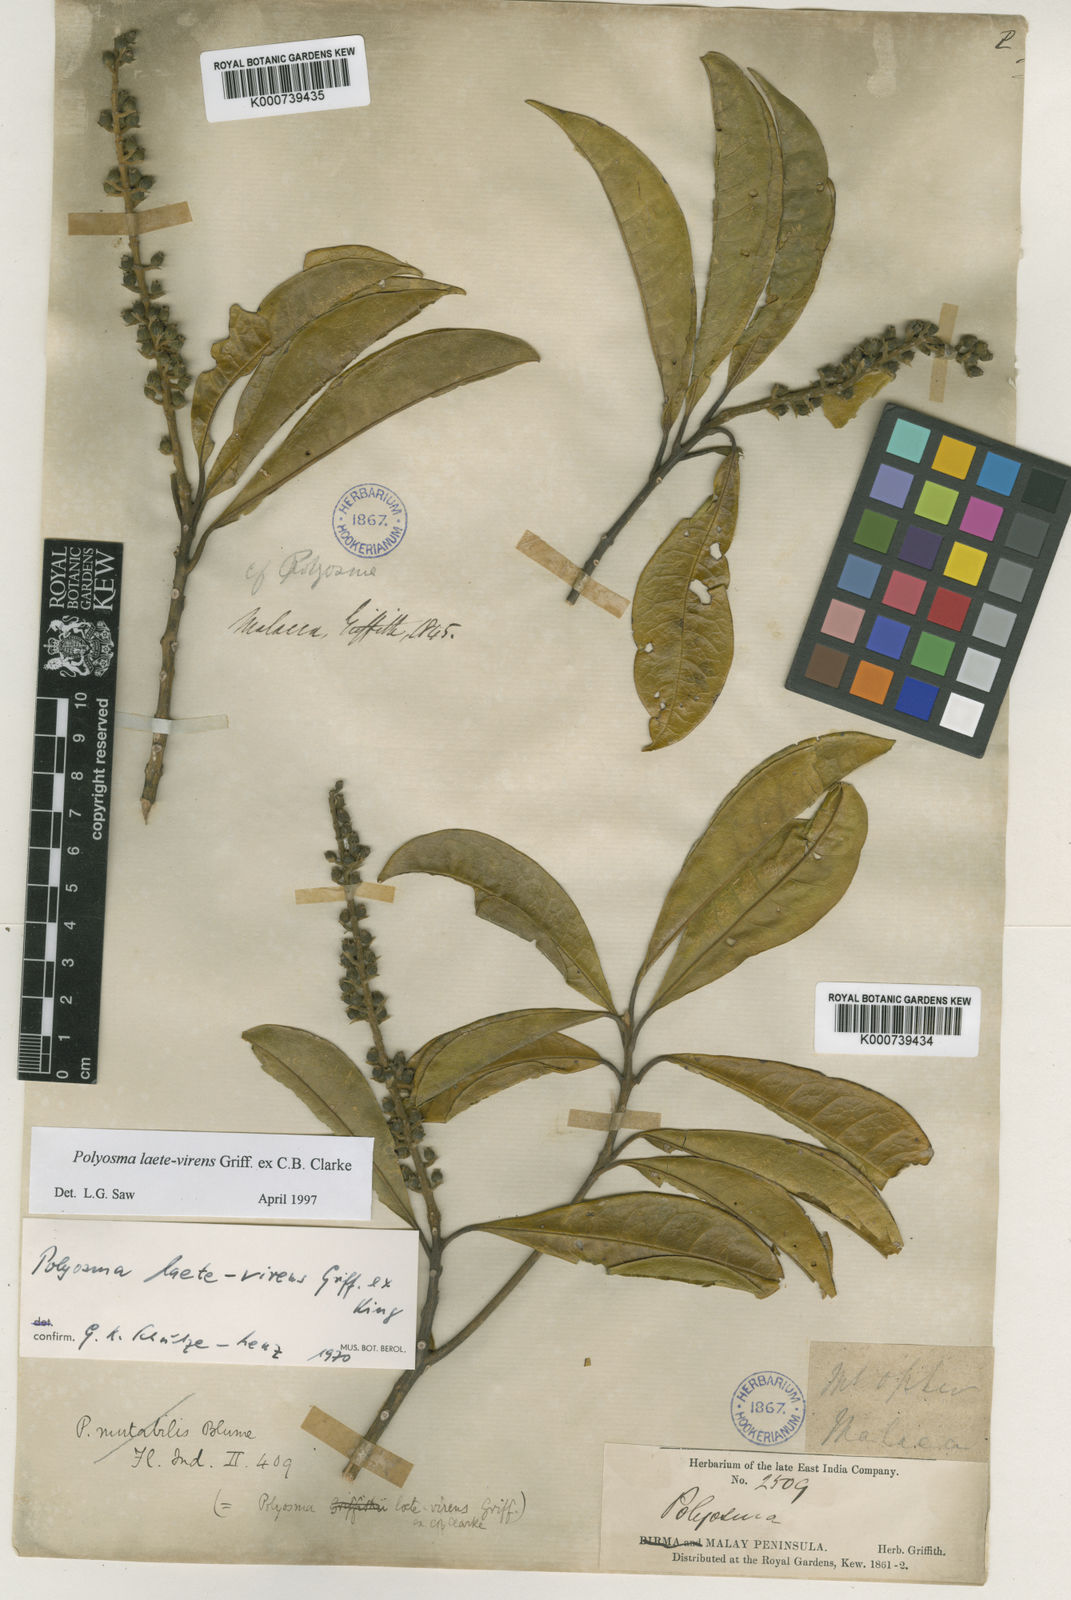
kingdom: Plantae
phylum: Tracheophyta
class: Magnoliopsida
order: Escalloniales
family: Escalloniaceae
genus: Polyosma
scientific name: Polyosma
